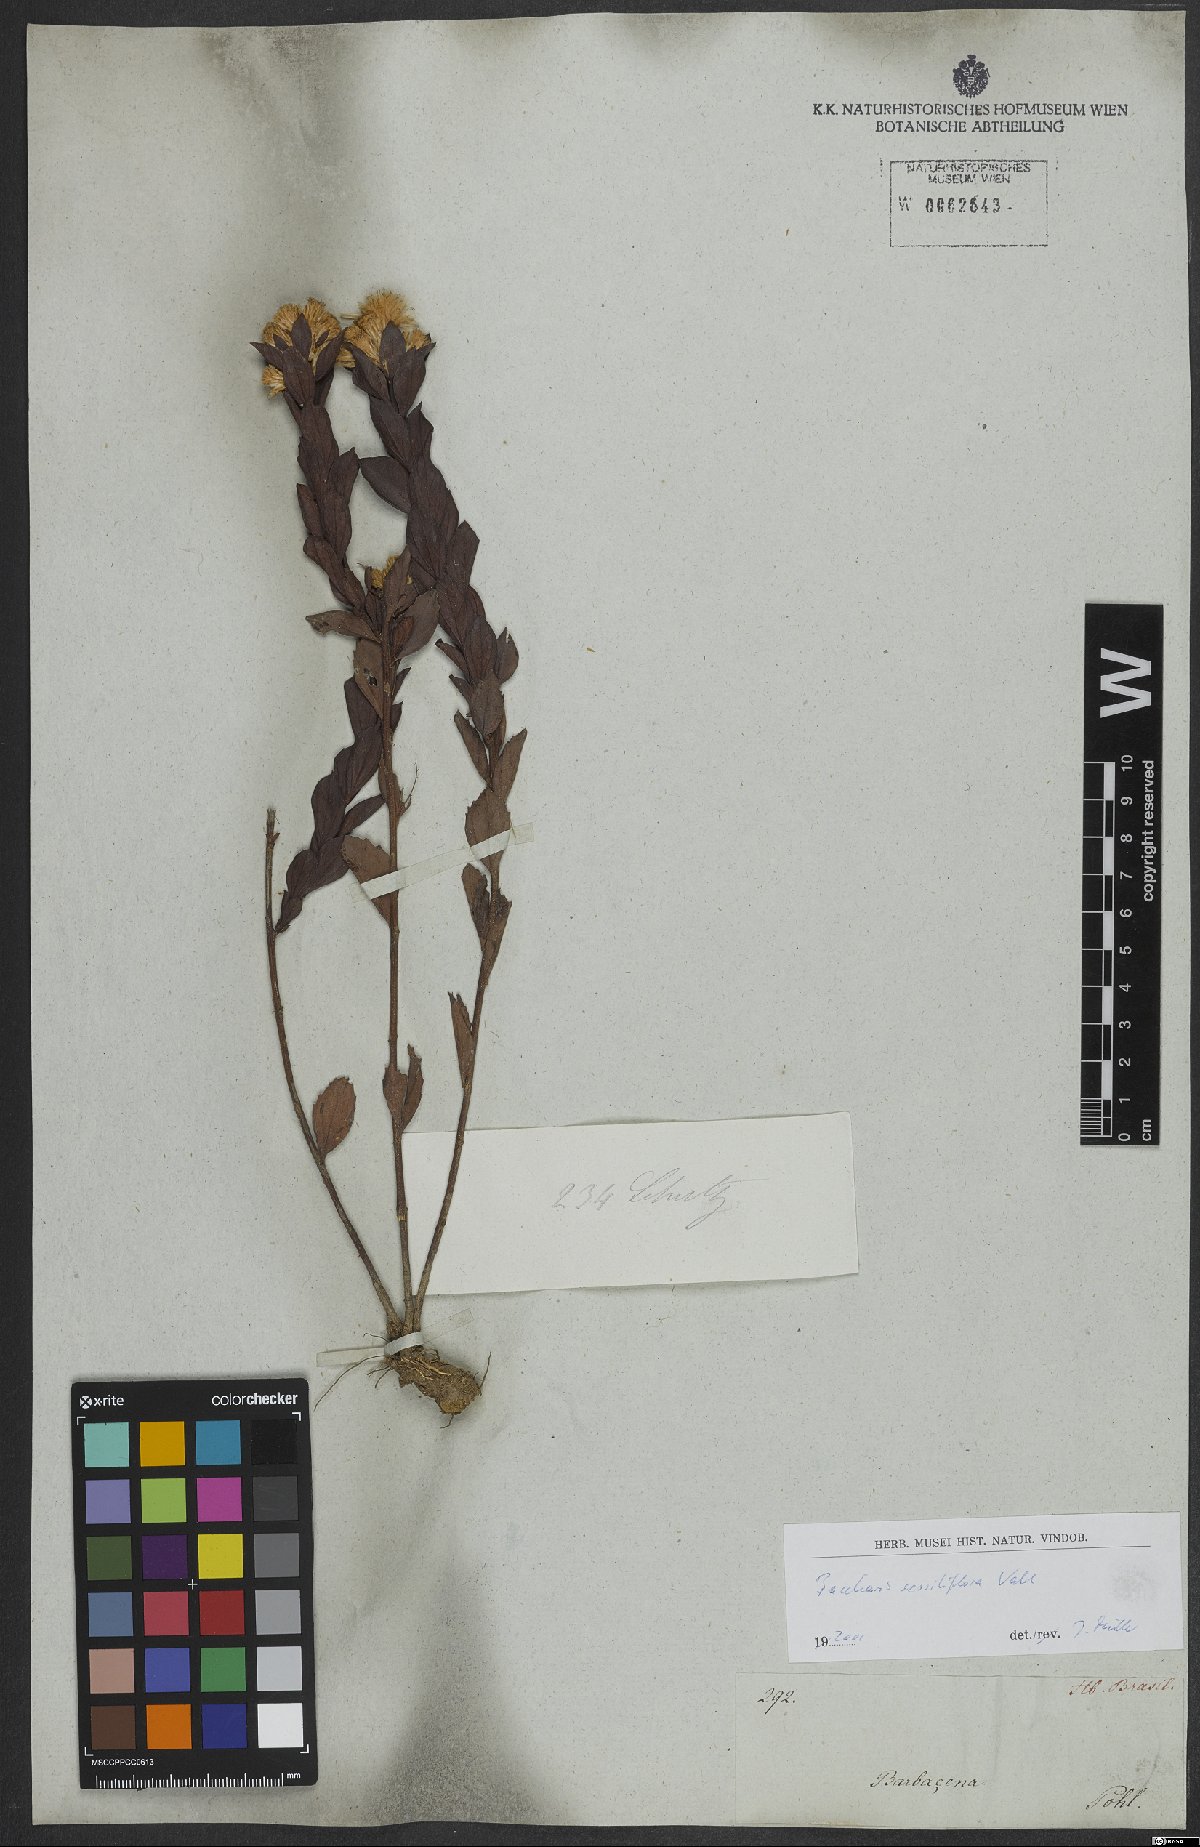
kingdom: Plantae
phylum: Tracheophyta
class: Magnoliopsida
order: Asterales
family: Asteraceae
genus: Baccharis
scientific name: Baccharis sessiliflora
